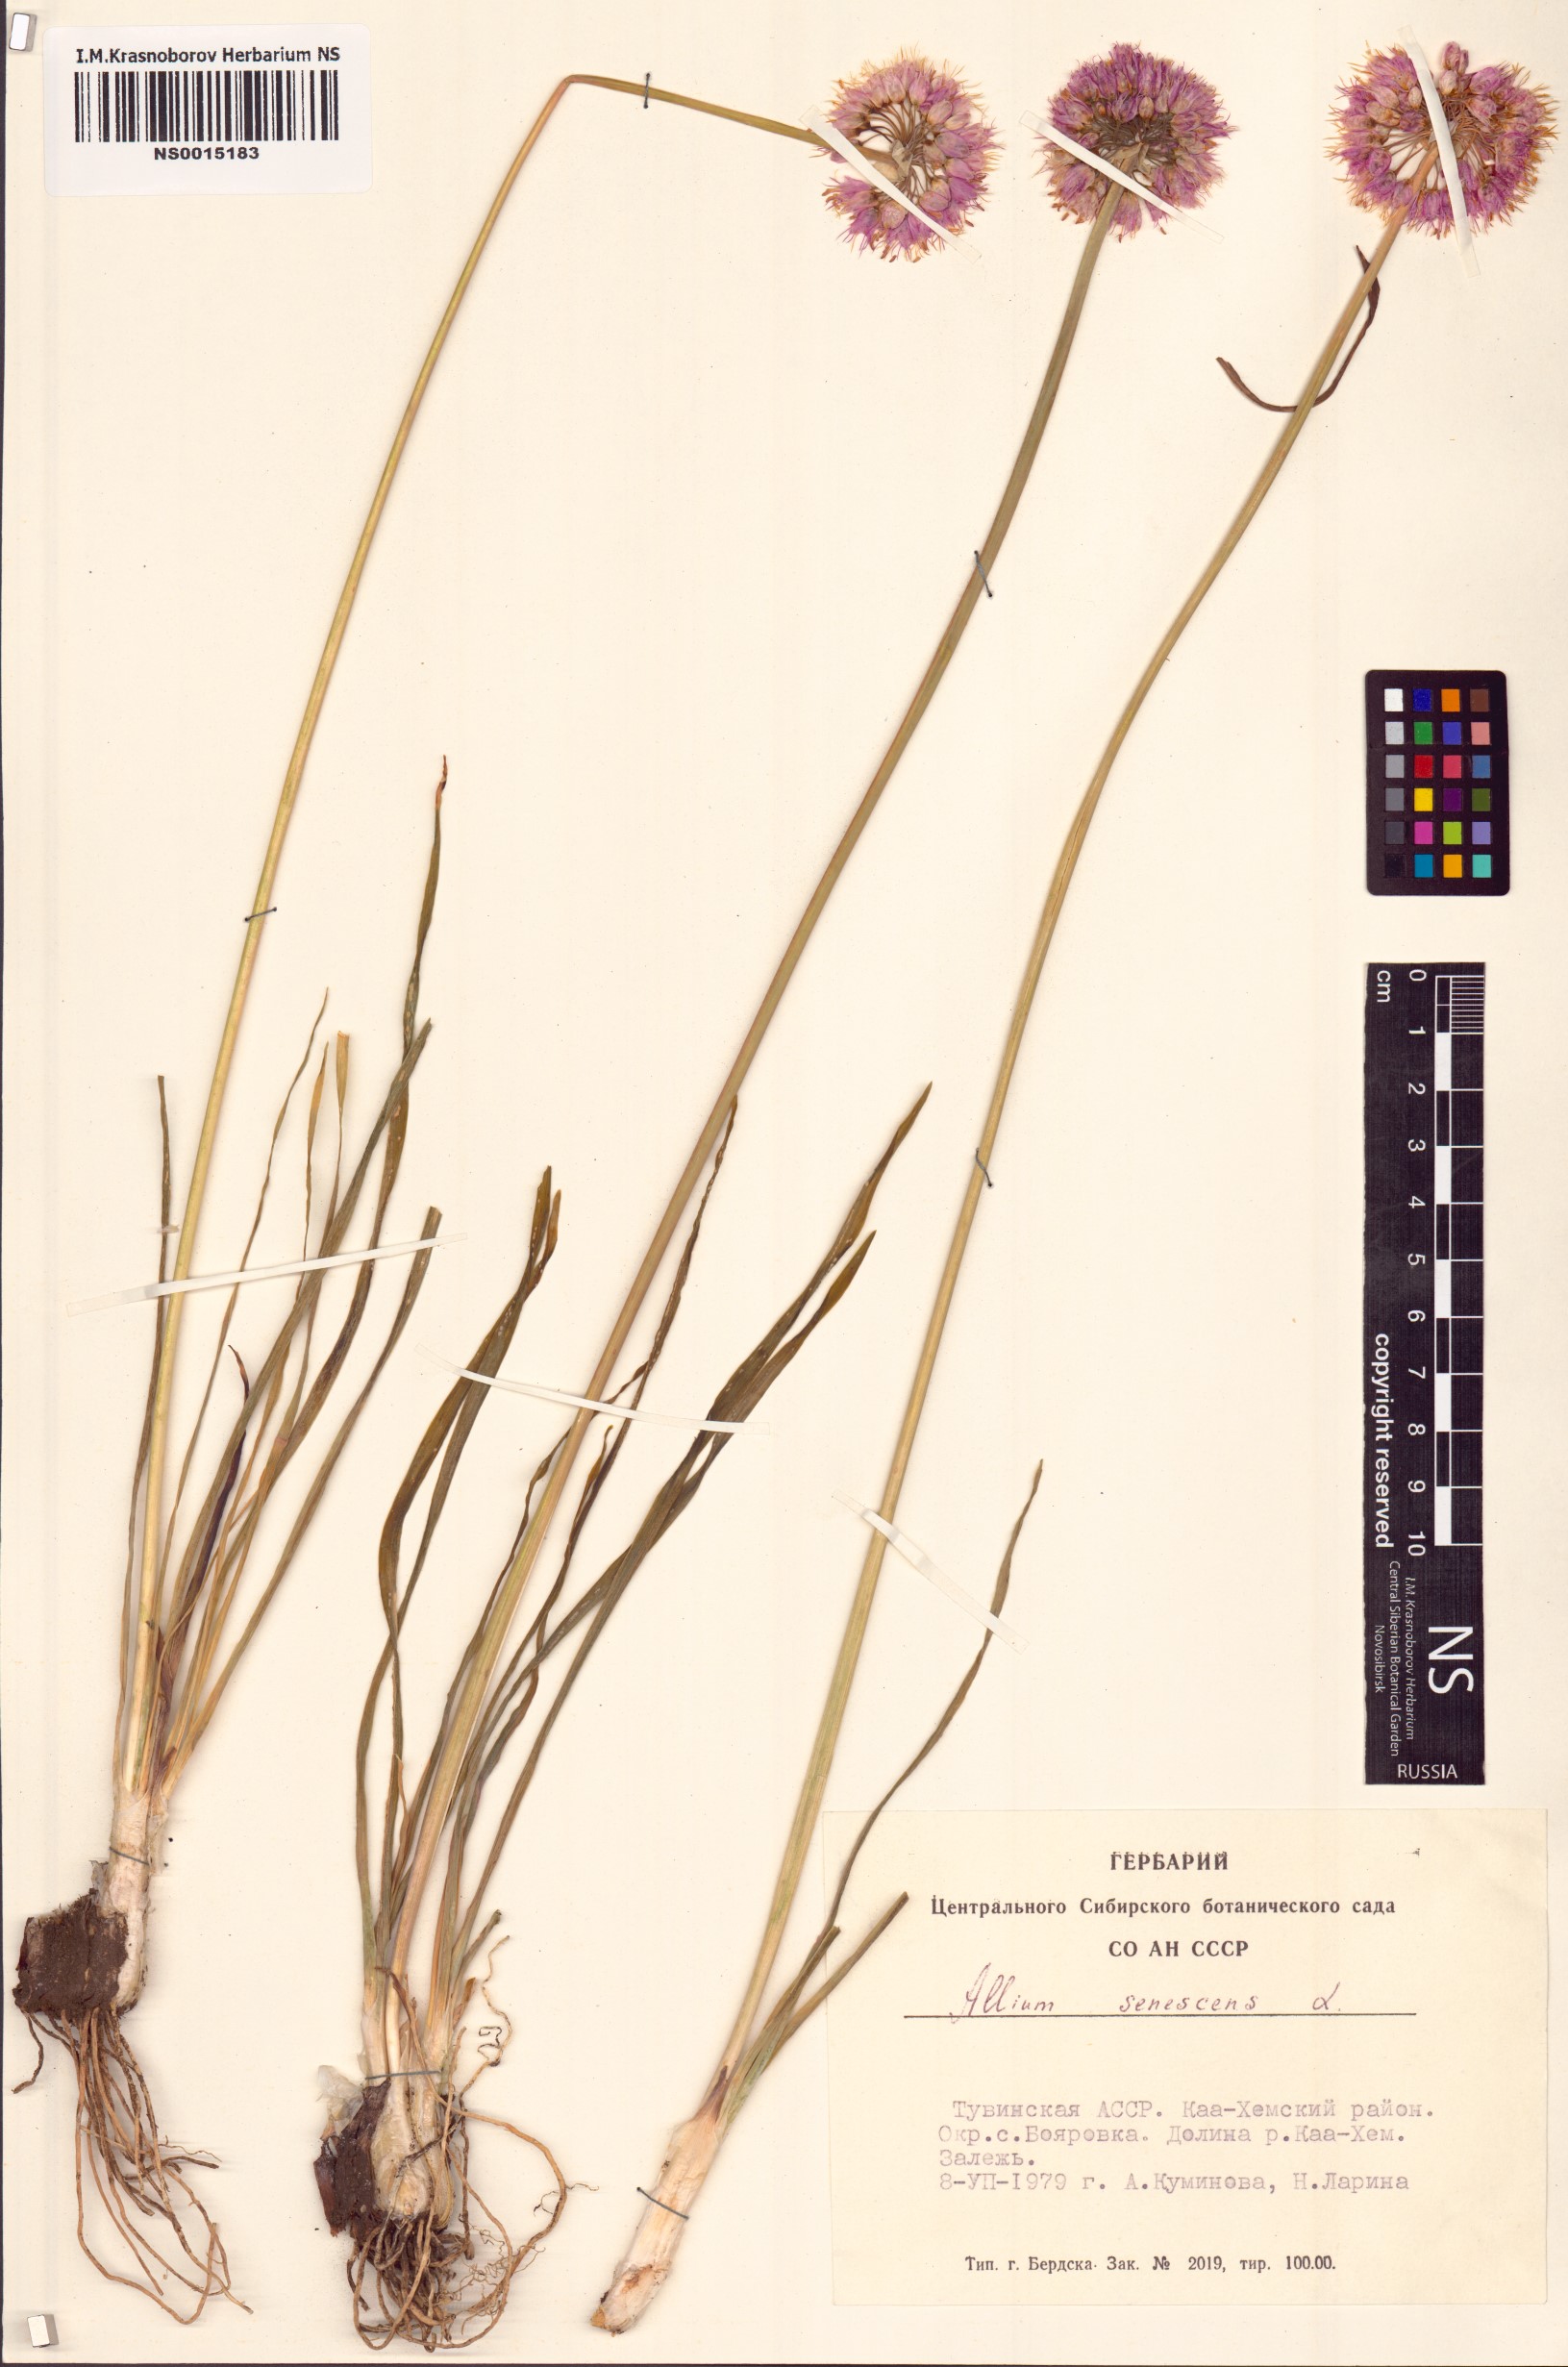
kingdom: Plantae
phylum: Tracheophyta
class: Liliopsida
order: Asparagales
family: Amaryllidaceae
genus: Allium
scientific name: Allium senescens
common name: German garlic
